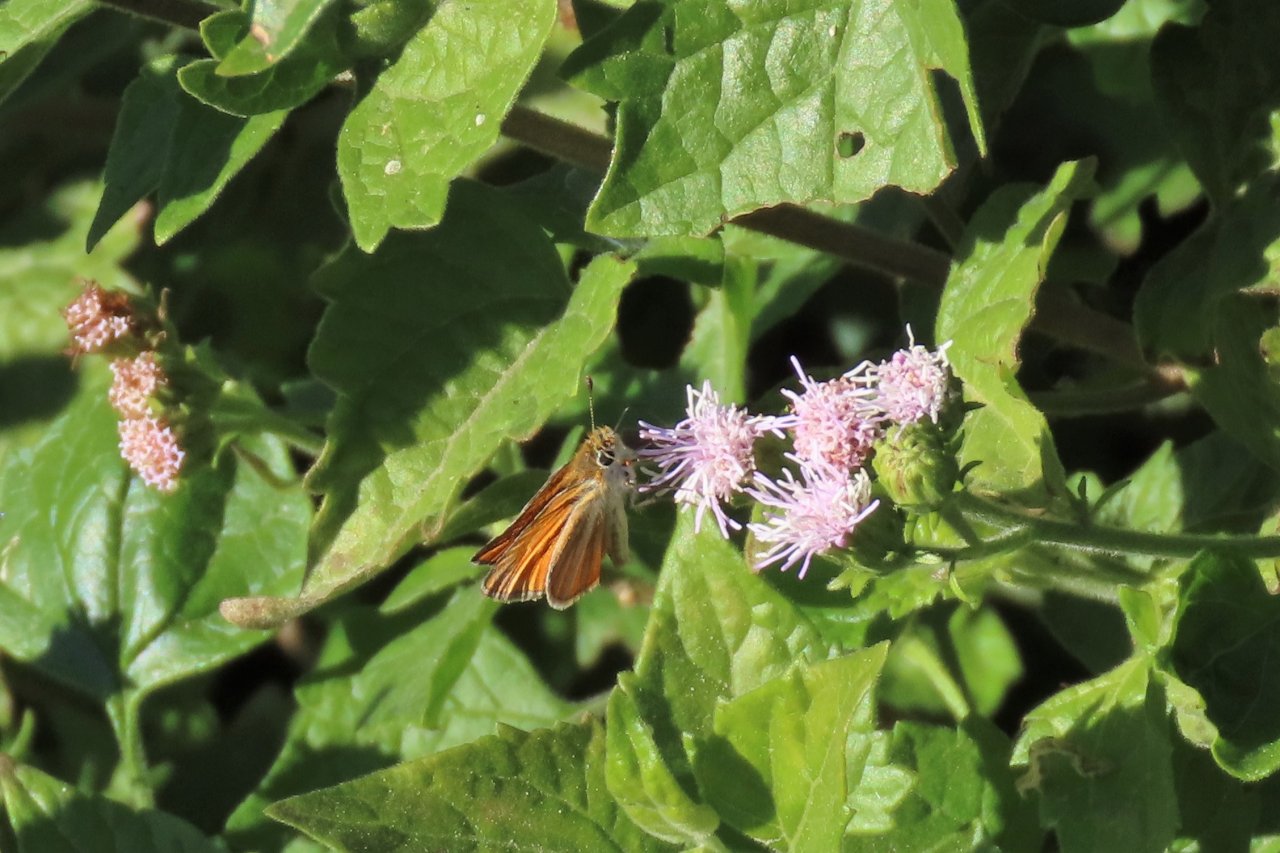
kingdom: Animalia
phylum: Arthropoda
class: Insecta
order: Lepidoptera
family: Hesperiidae
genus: Copaeodes
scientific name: Copaeodes minima
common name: Southern Skipperling
